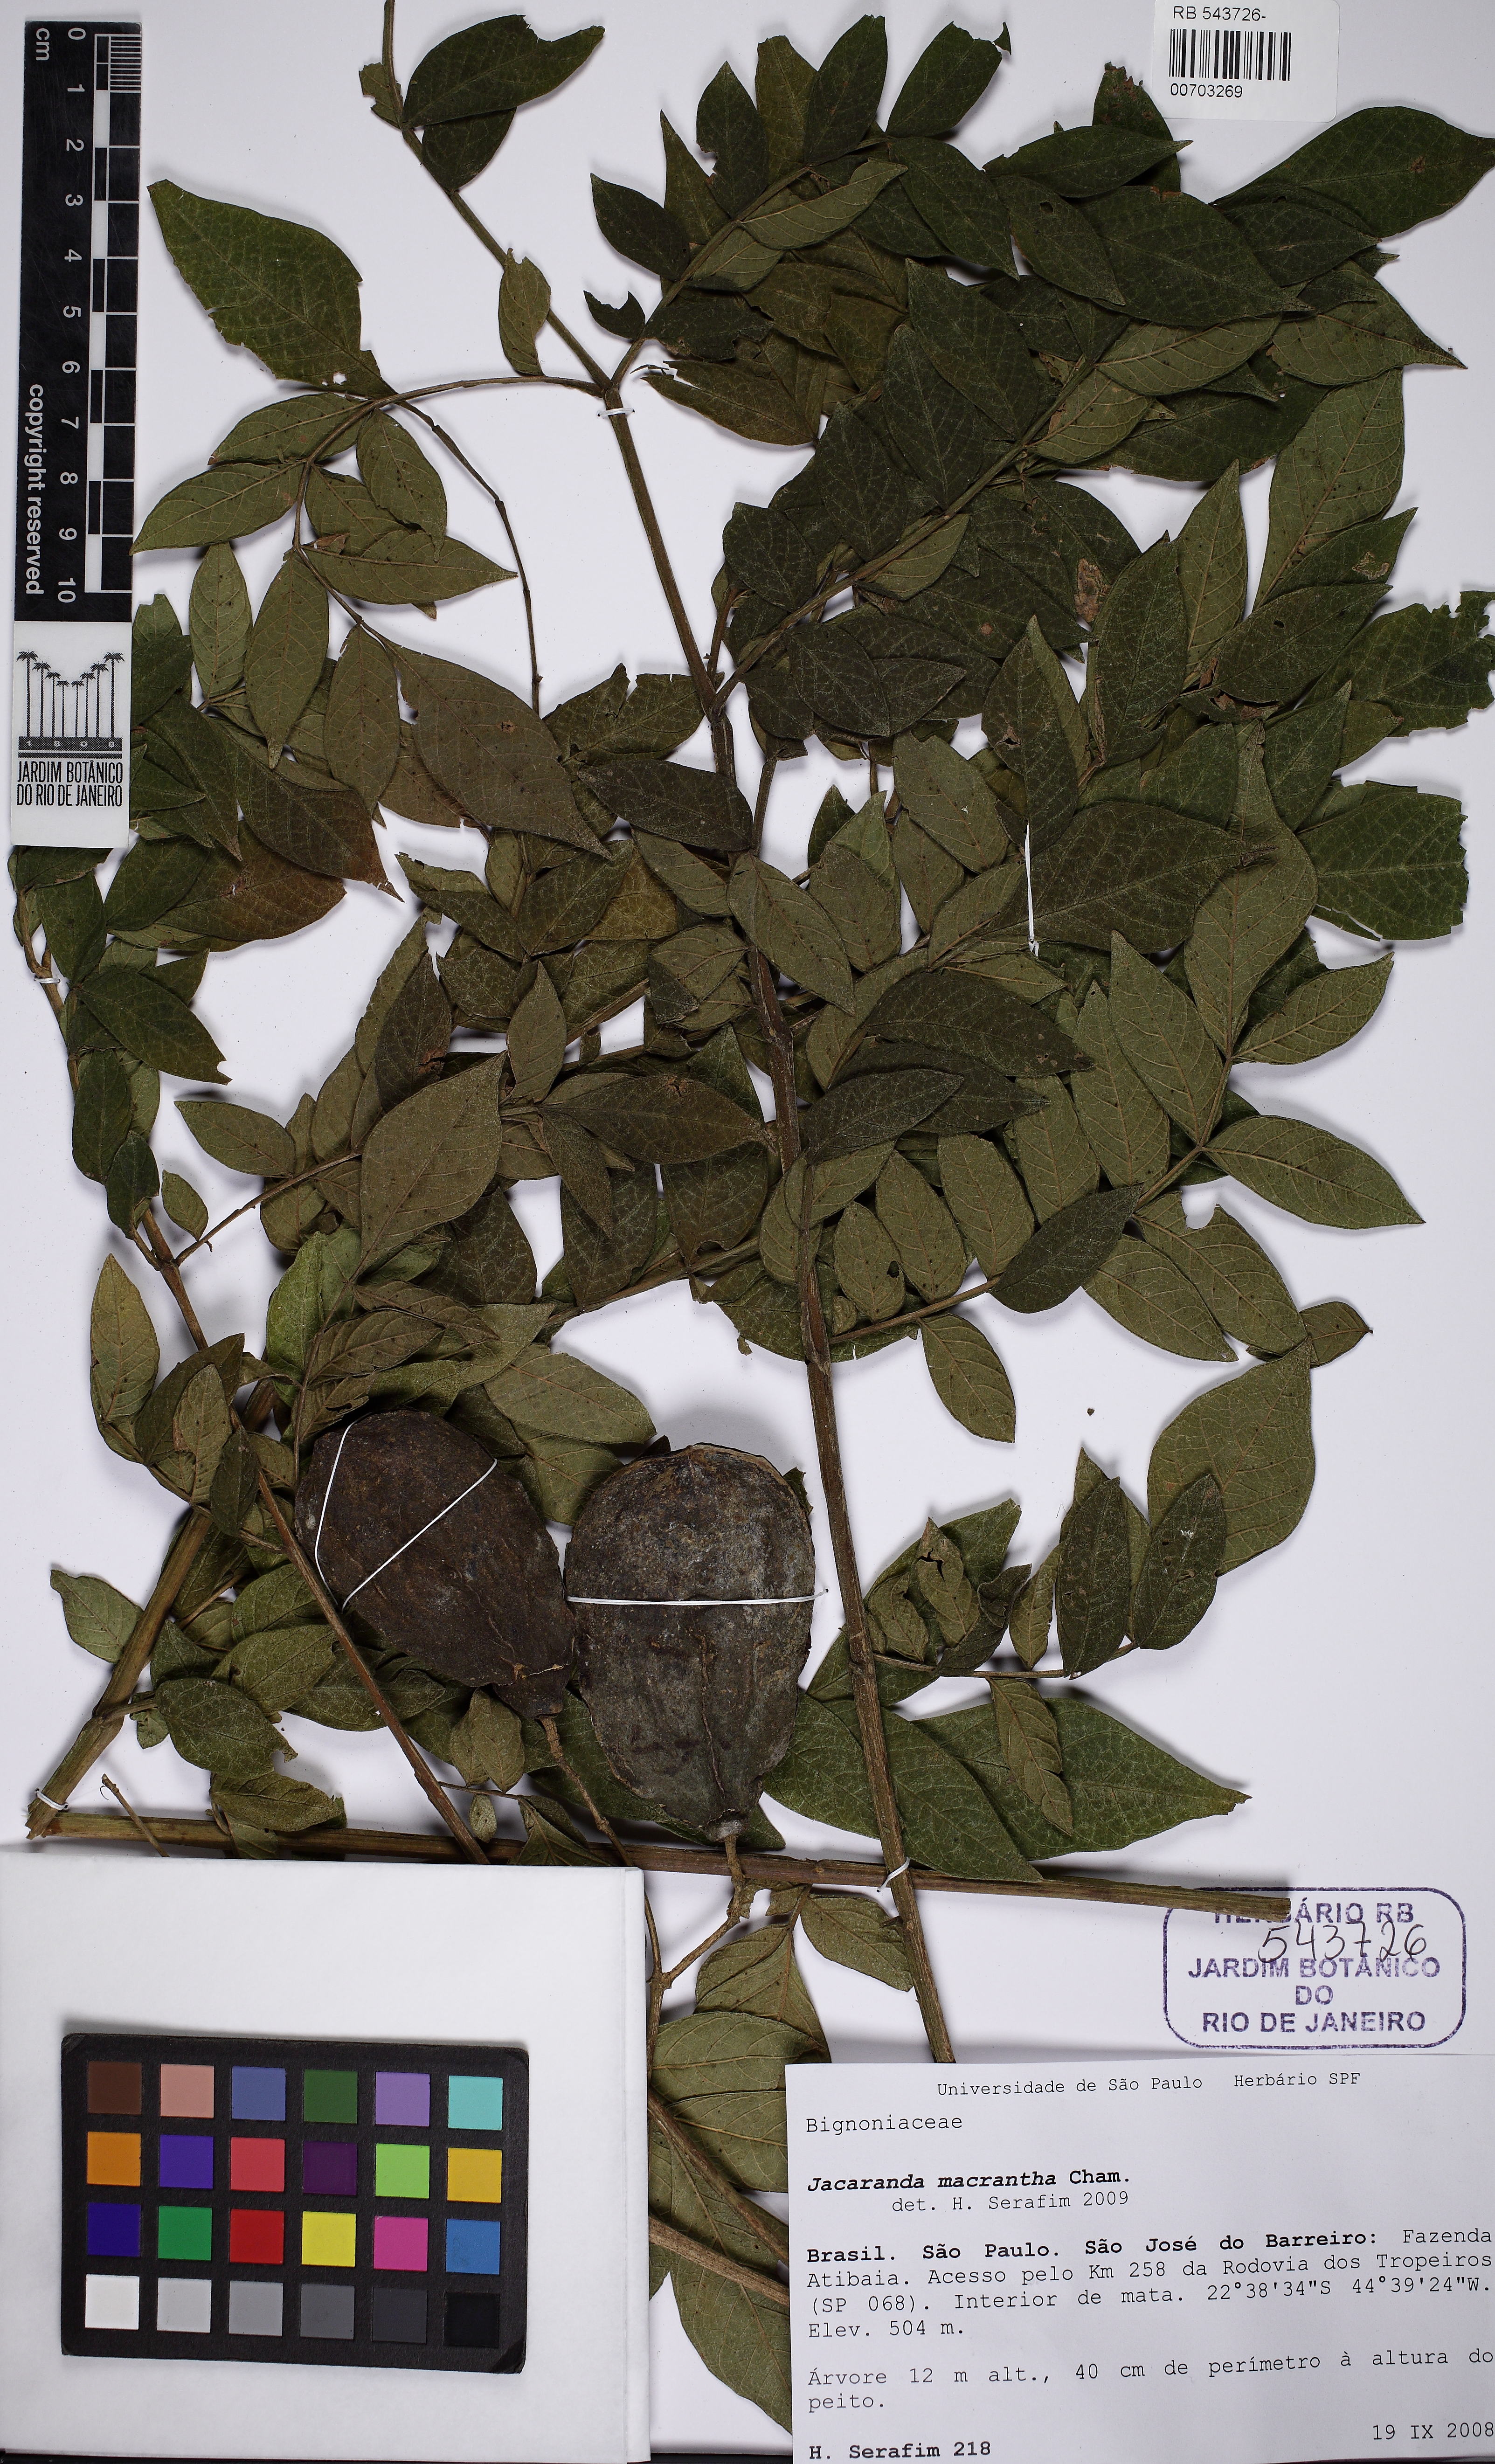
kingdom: Plantae
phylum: Tracheophyta
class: Magnoliopsida
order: Lamiales
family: Bignoniaceae
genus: Jacaranda
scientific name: Jacaranda macrantha
